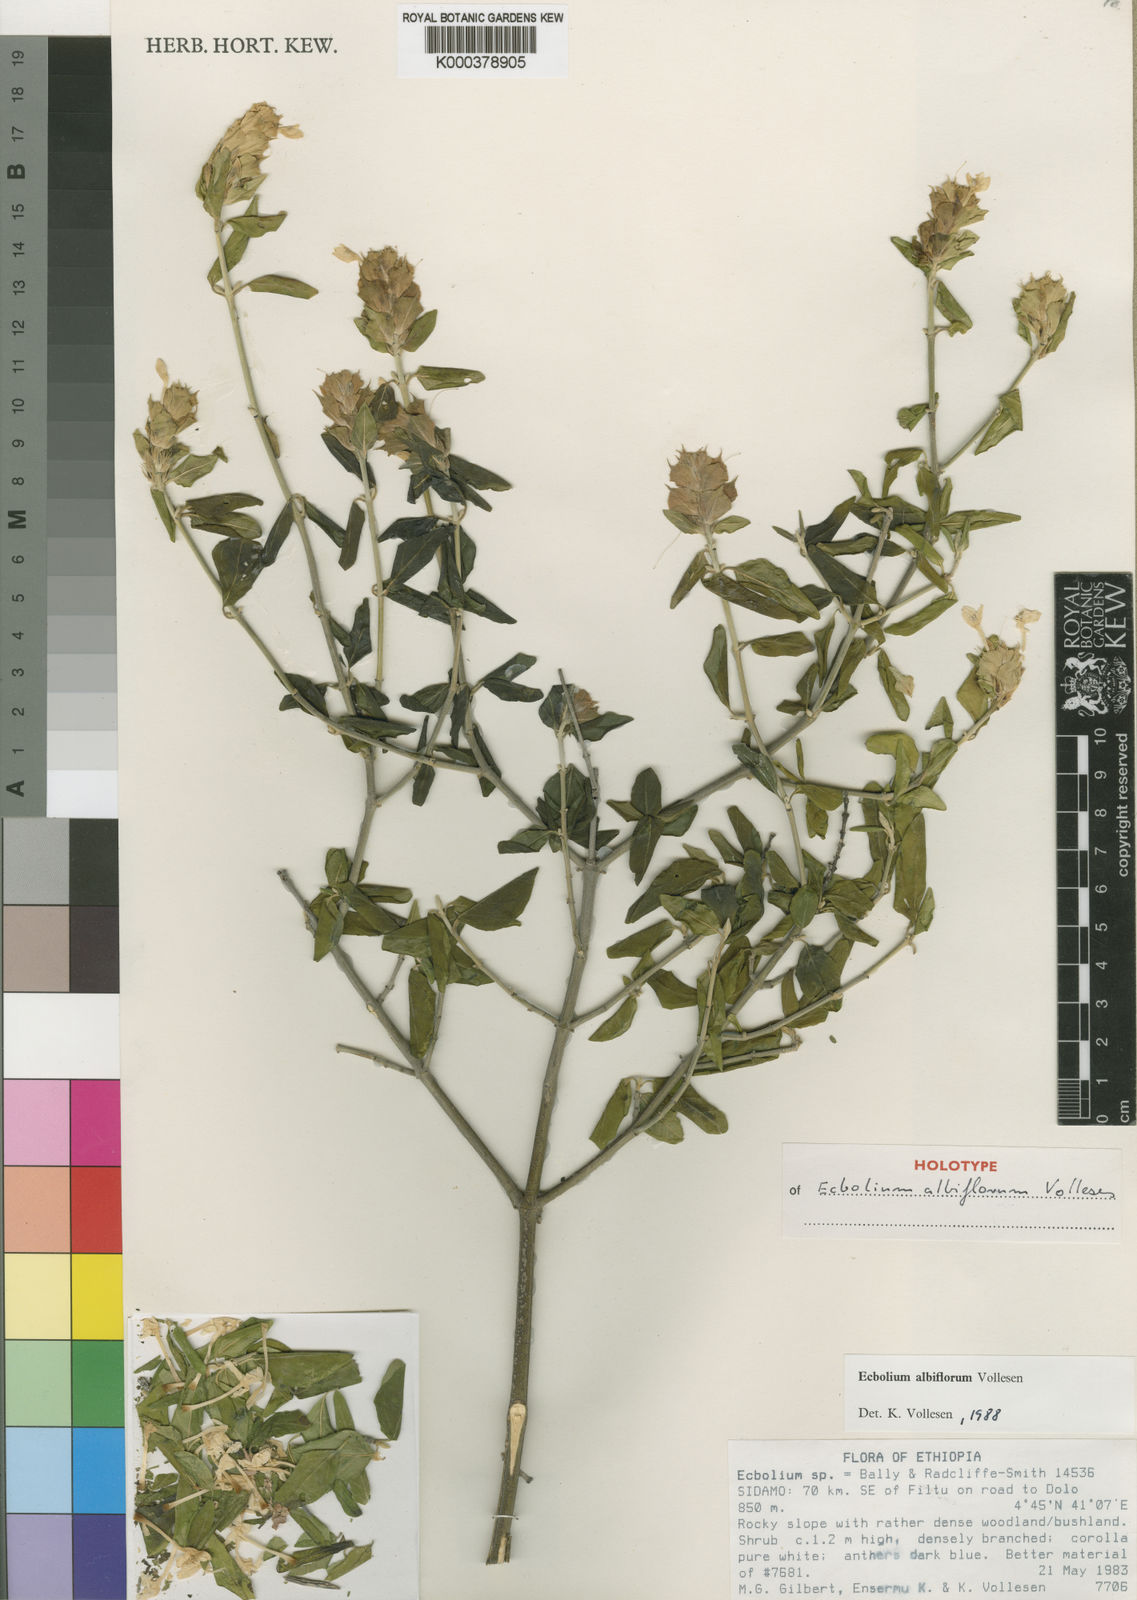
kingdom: Plantae
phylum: Tracheophyta
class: Magnoliopsida
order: Lamiales
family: Acanthaceae
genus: Ecbolium
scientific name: Ecbolium albiflorum
